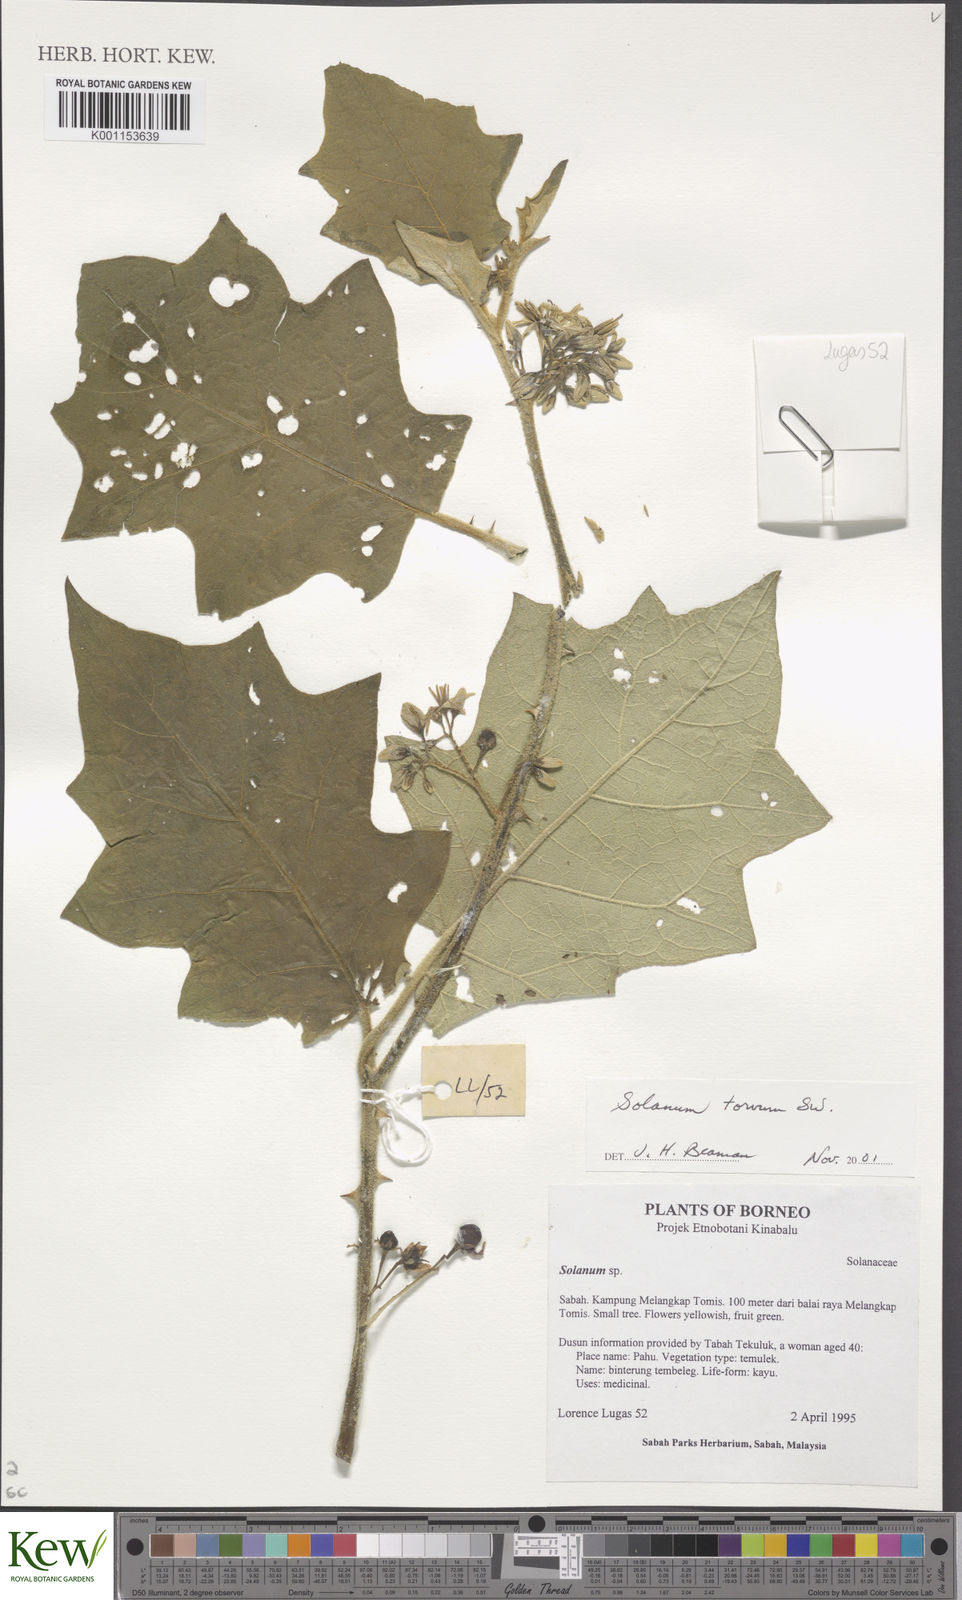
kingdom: Plantae
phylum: Tracheophyta
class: Magnoliopsida
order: Solanales
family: Solanaceae
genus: Solanum
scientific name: Solanum torvum
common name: Turkey berry
